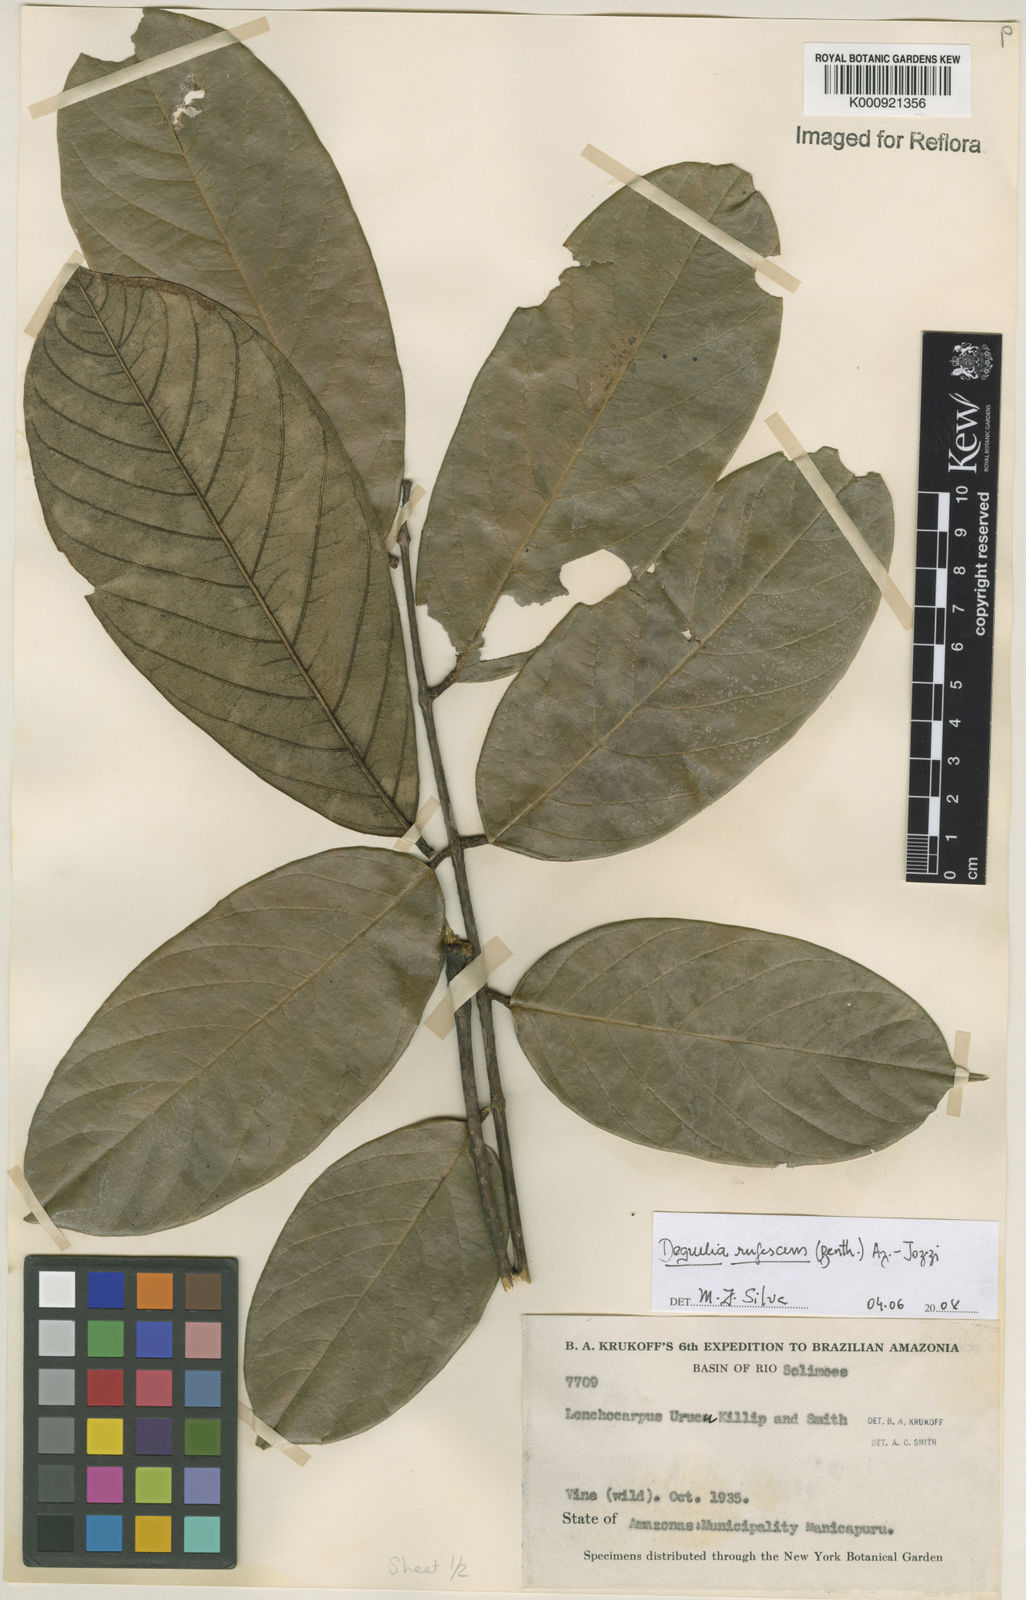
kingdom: Plantae
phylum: Tracheophyta
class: Magnoliopsida
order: Fabales
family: Fabaceae
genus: Deguelia
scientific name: Deguelia
